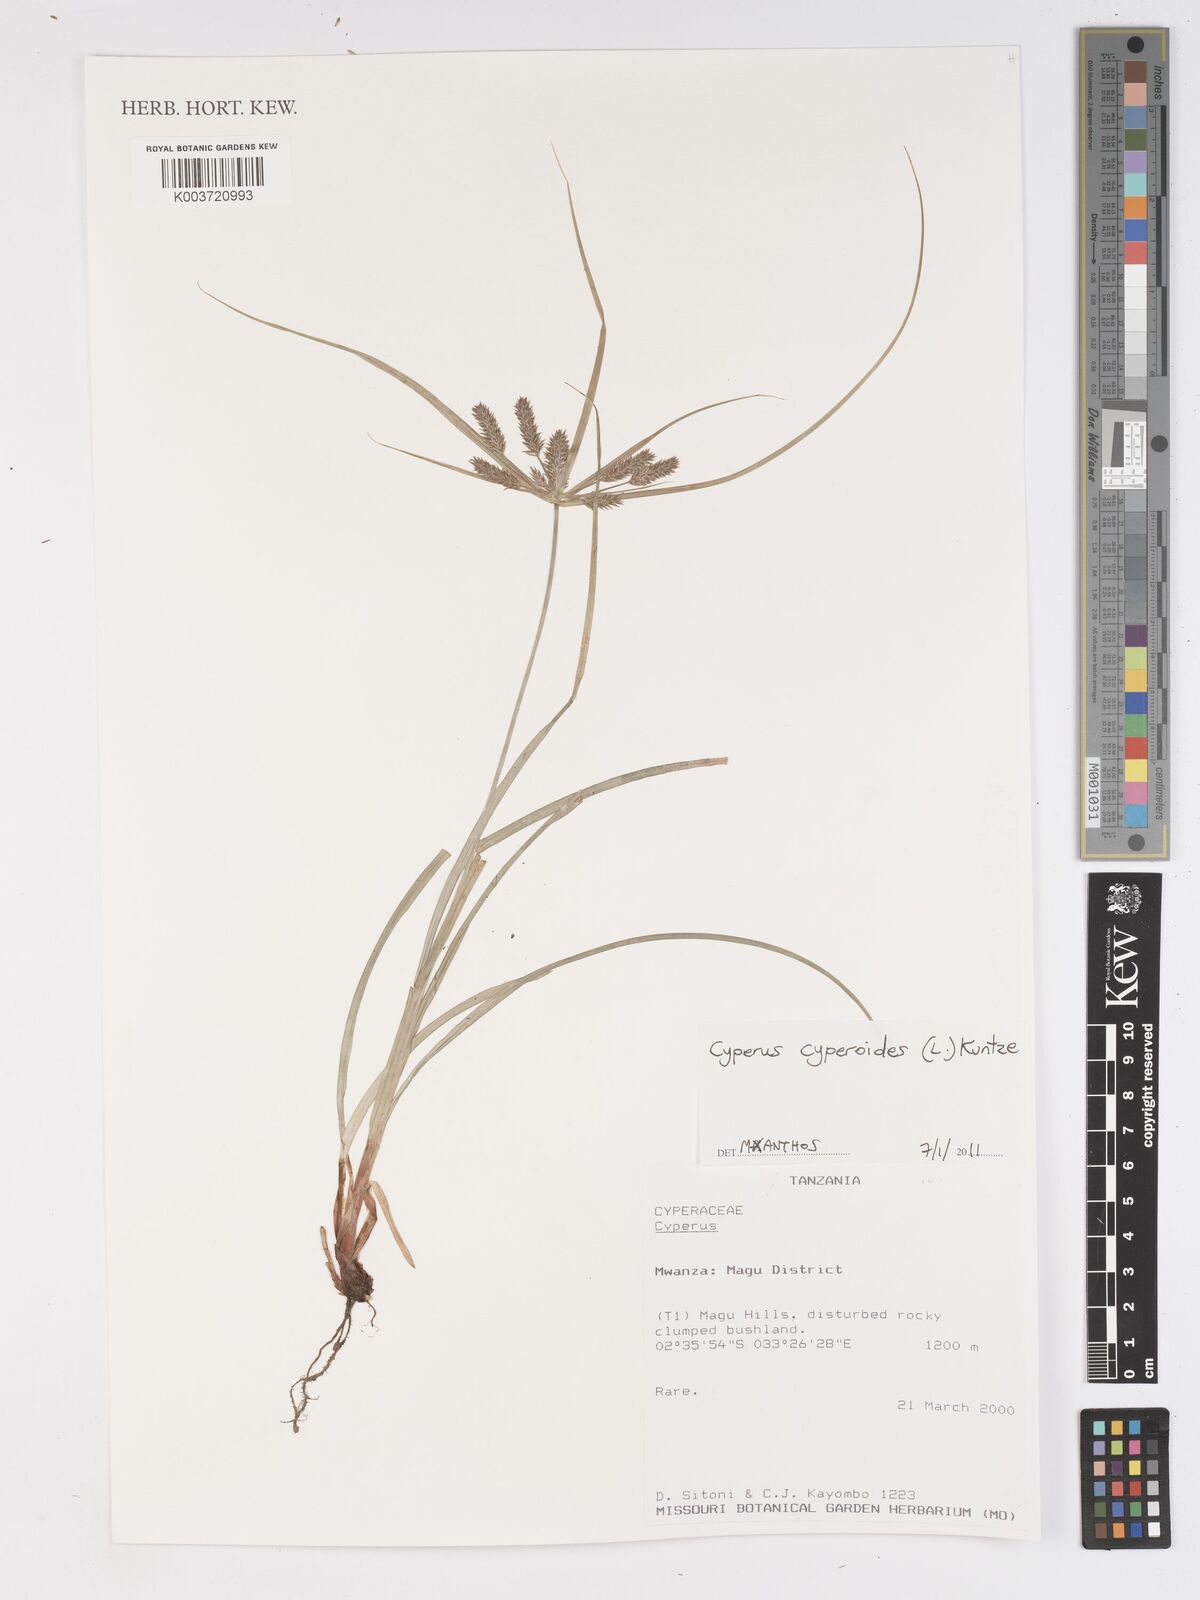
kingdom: Plantae
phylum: Tracheophyta
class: Liliopsida
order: Poales
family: Cyperaceae
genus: Cyperus
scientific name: Cyperus cyperoides
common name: Pacific island flat sedge
